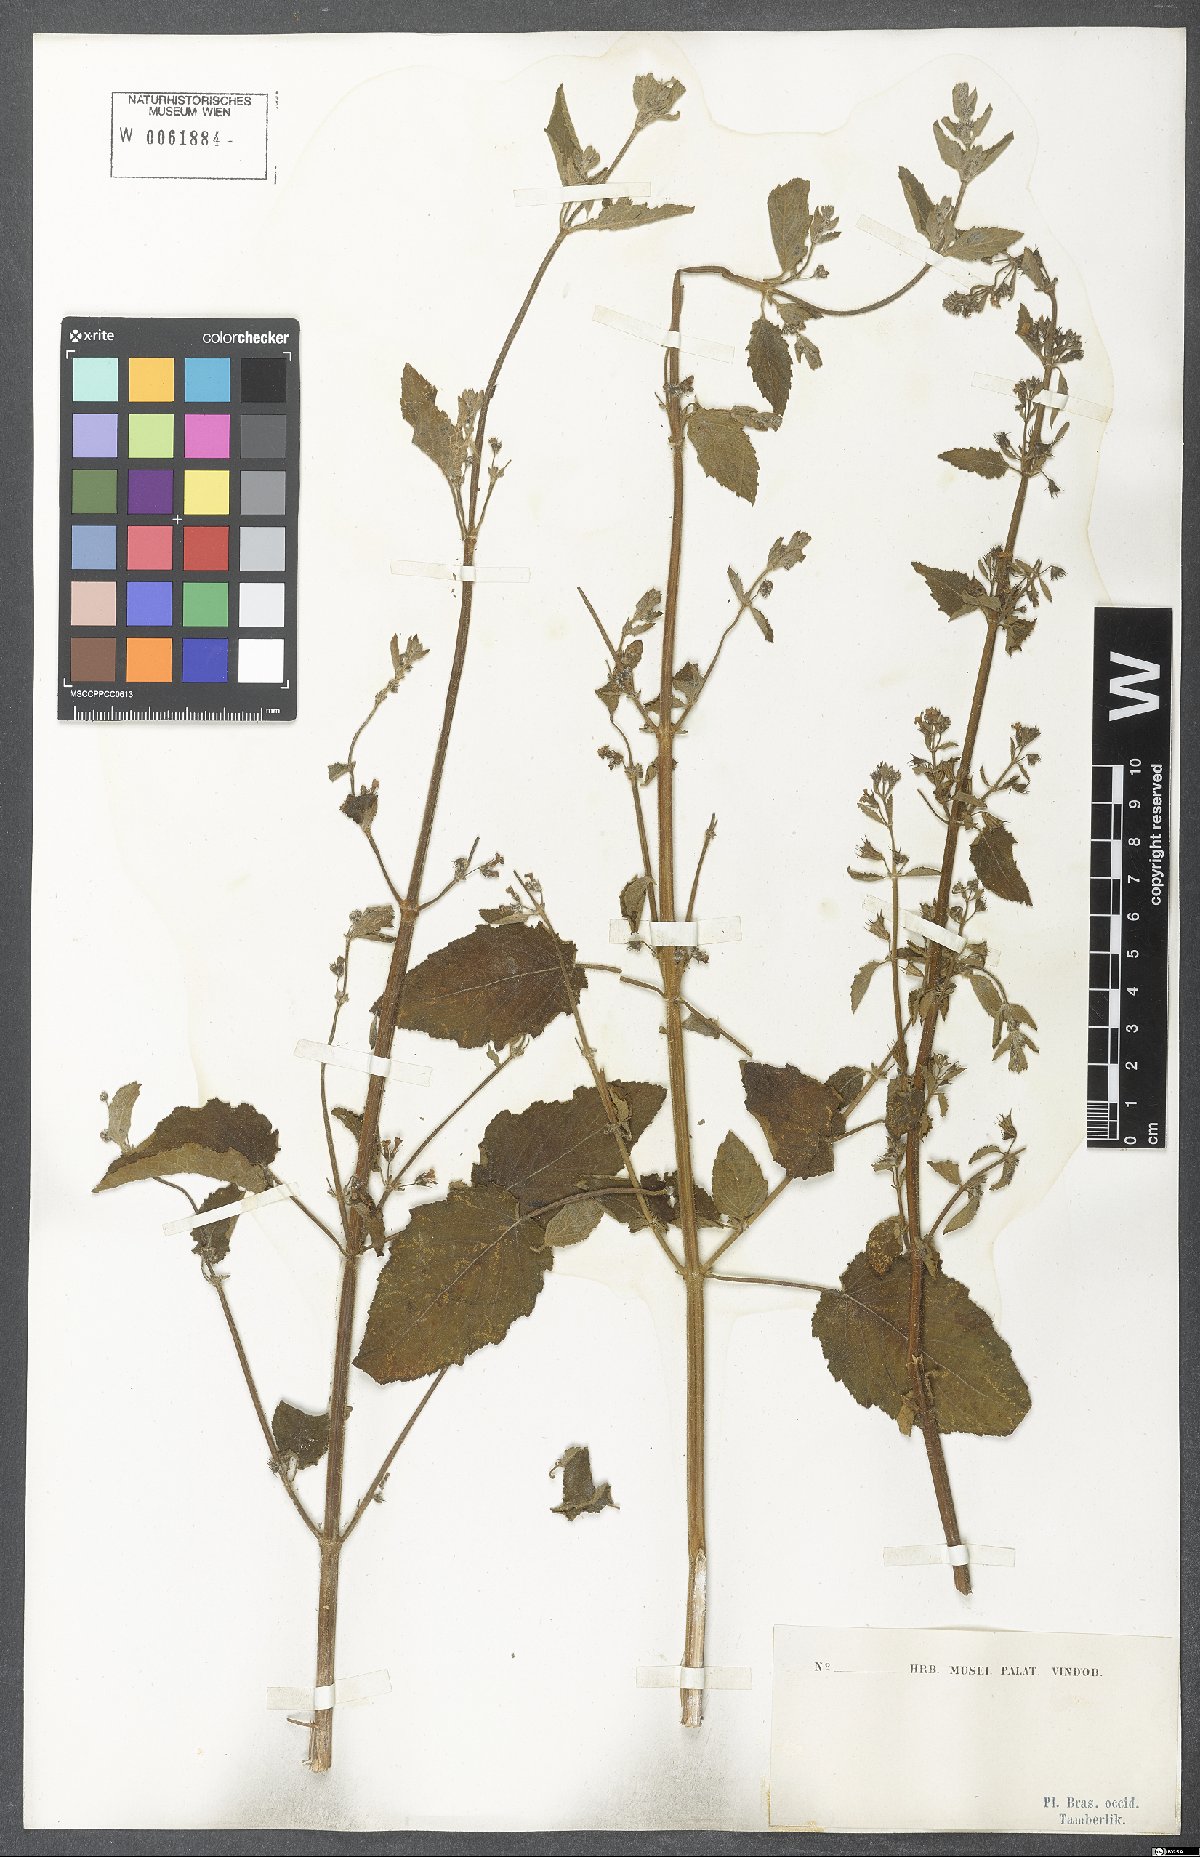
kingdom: Plantae
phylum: Tracheophyta
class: Magnoliopsida
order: Lamiales
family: Lamiaceae
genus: Mesosphaerum
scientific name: Mesosphaerum suaveolens
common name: Pignut
